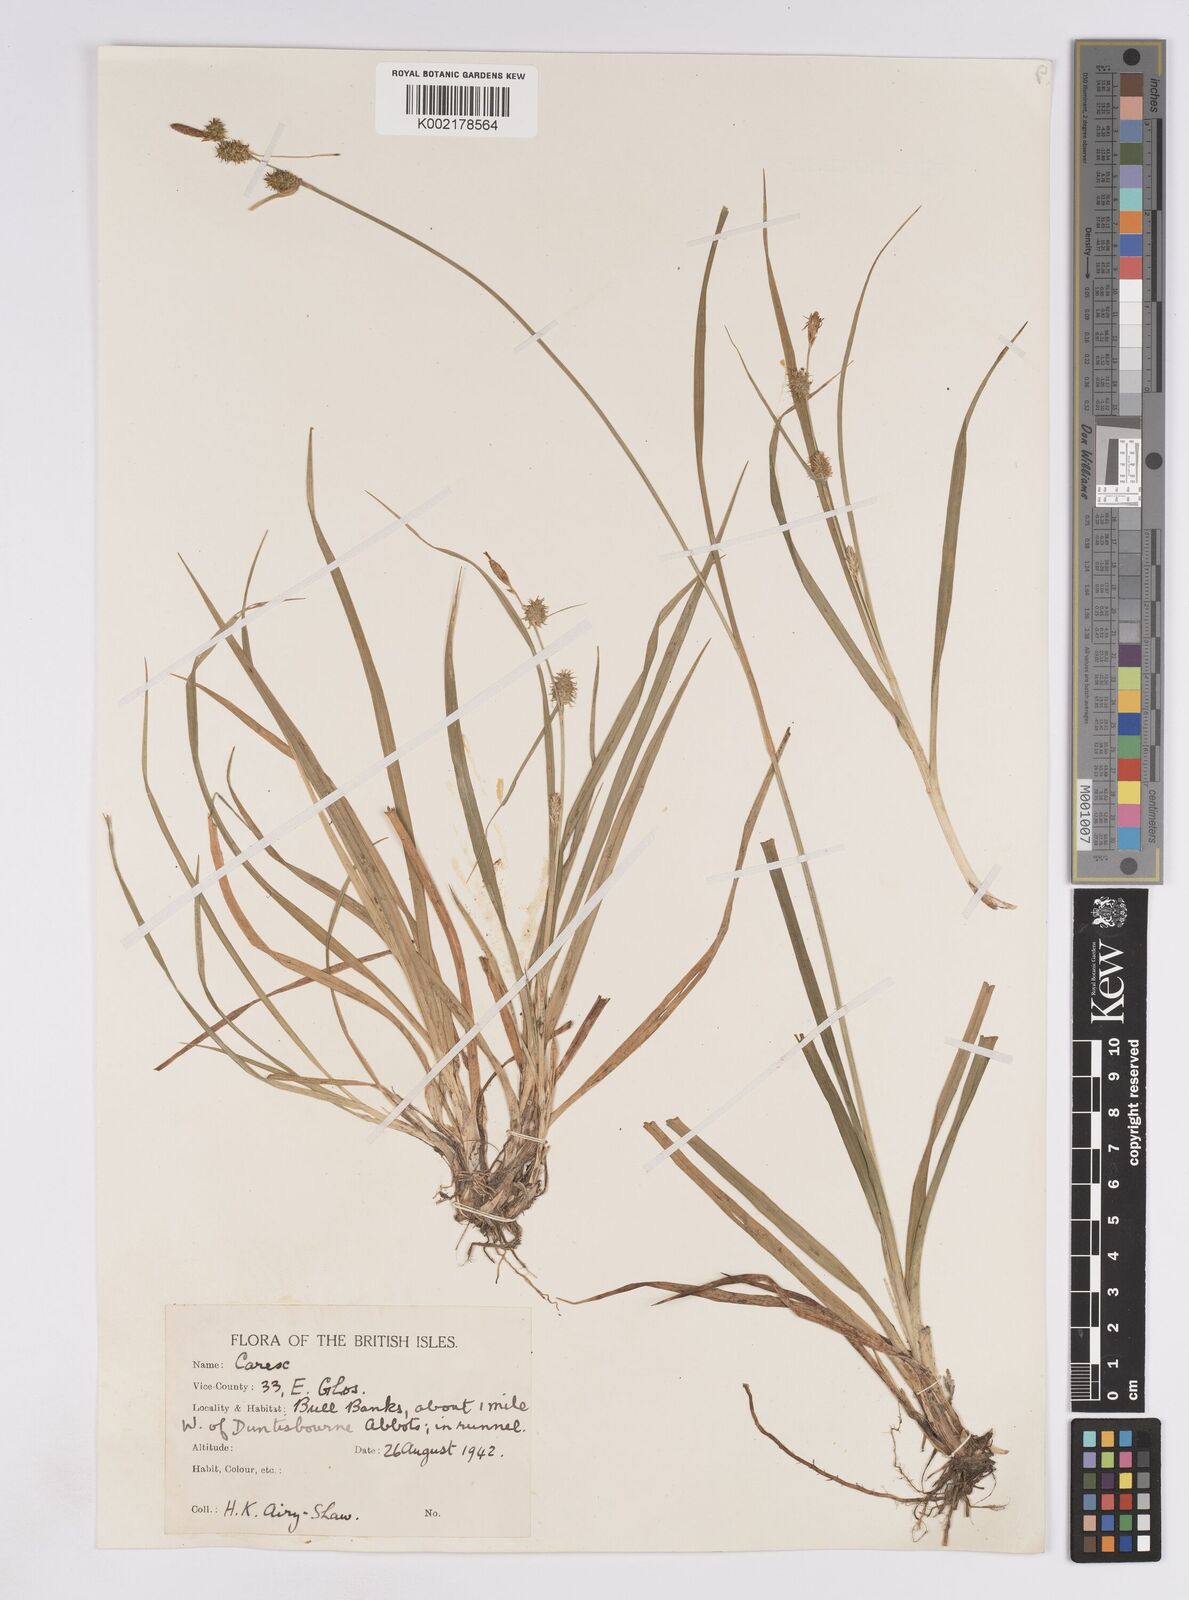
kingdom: Plantae
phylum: Tracheophyta
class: Liliopsida
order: Poales
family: Cyperaceae
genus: Carex
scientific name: Carex lepidocarpa
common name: Long-stalked yellow-sedge
